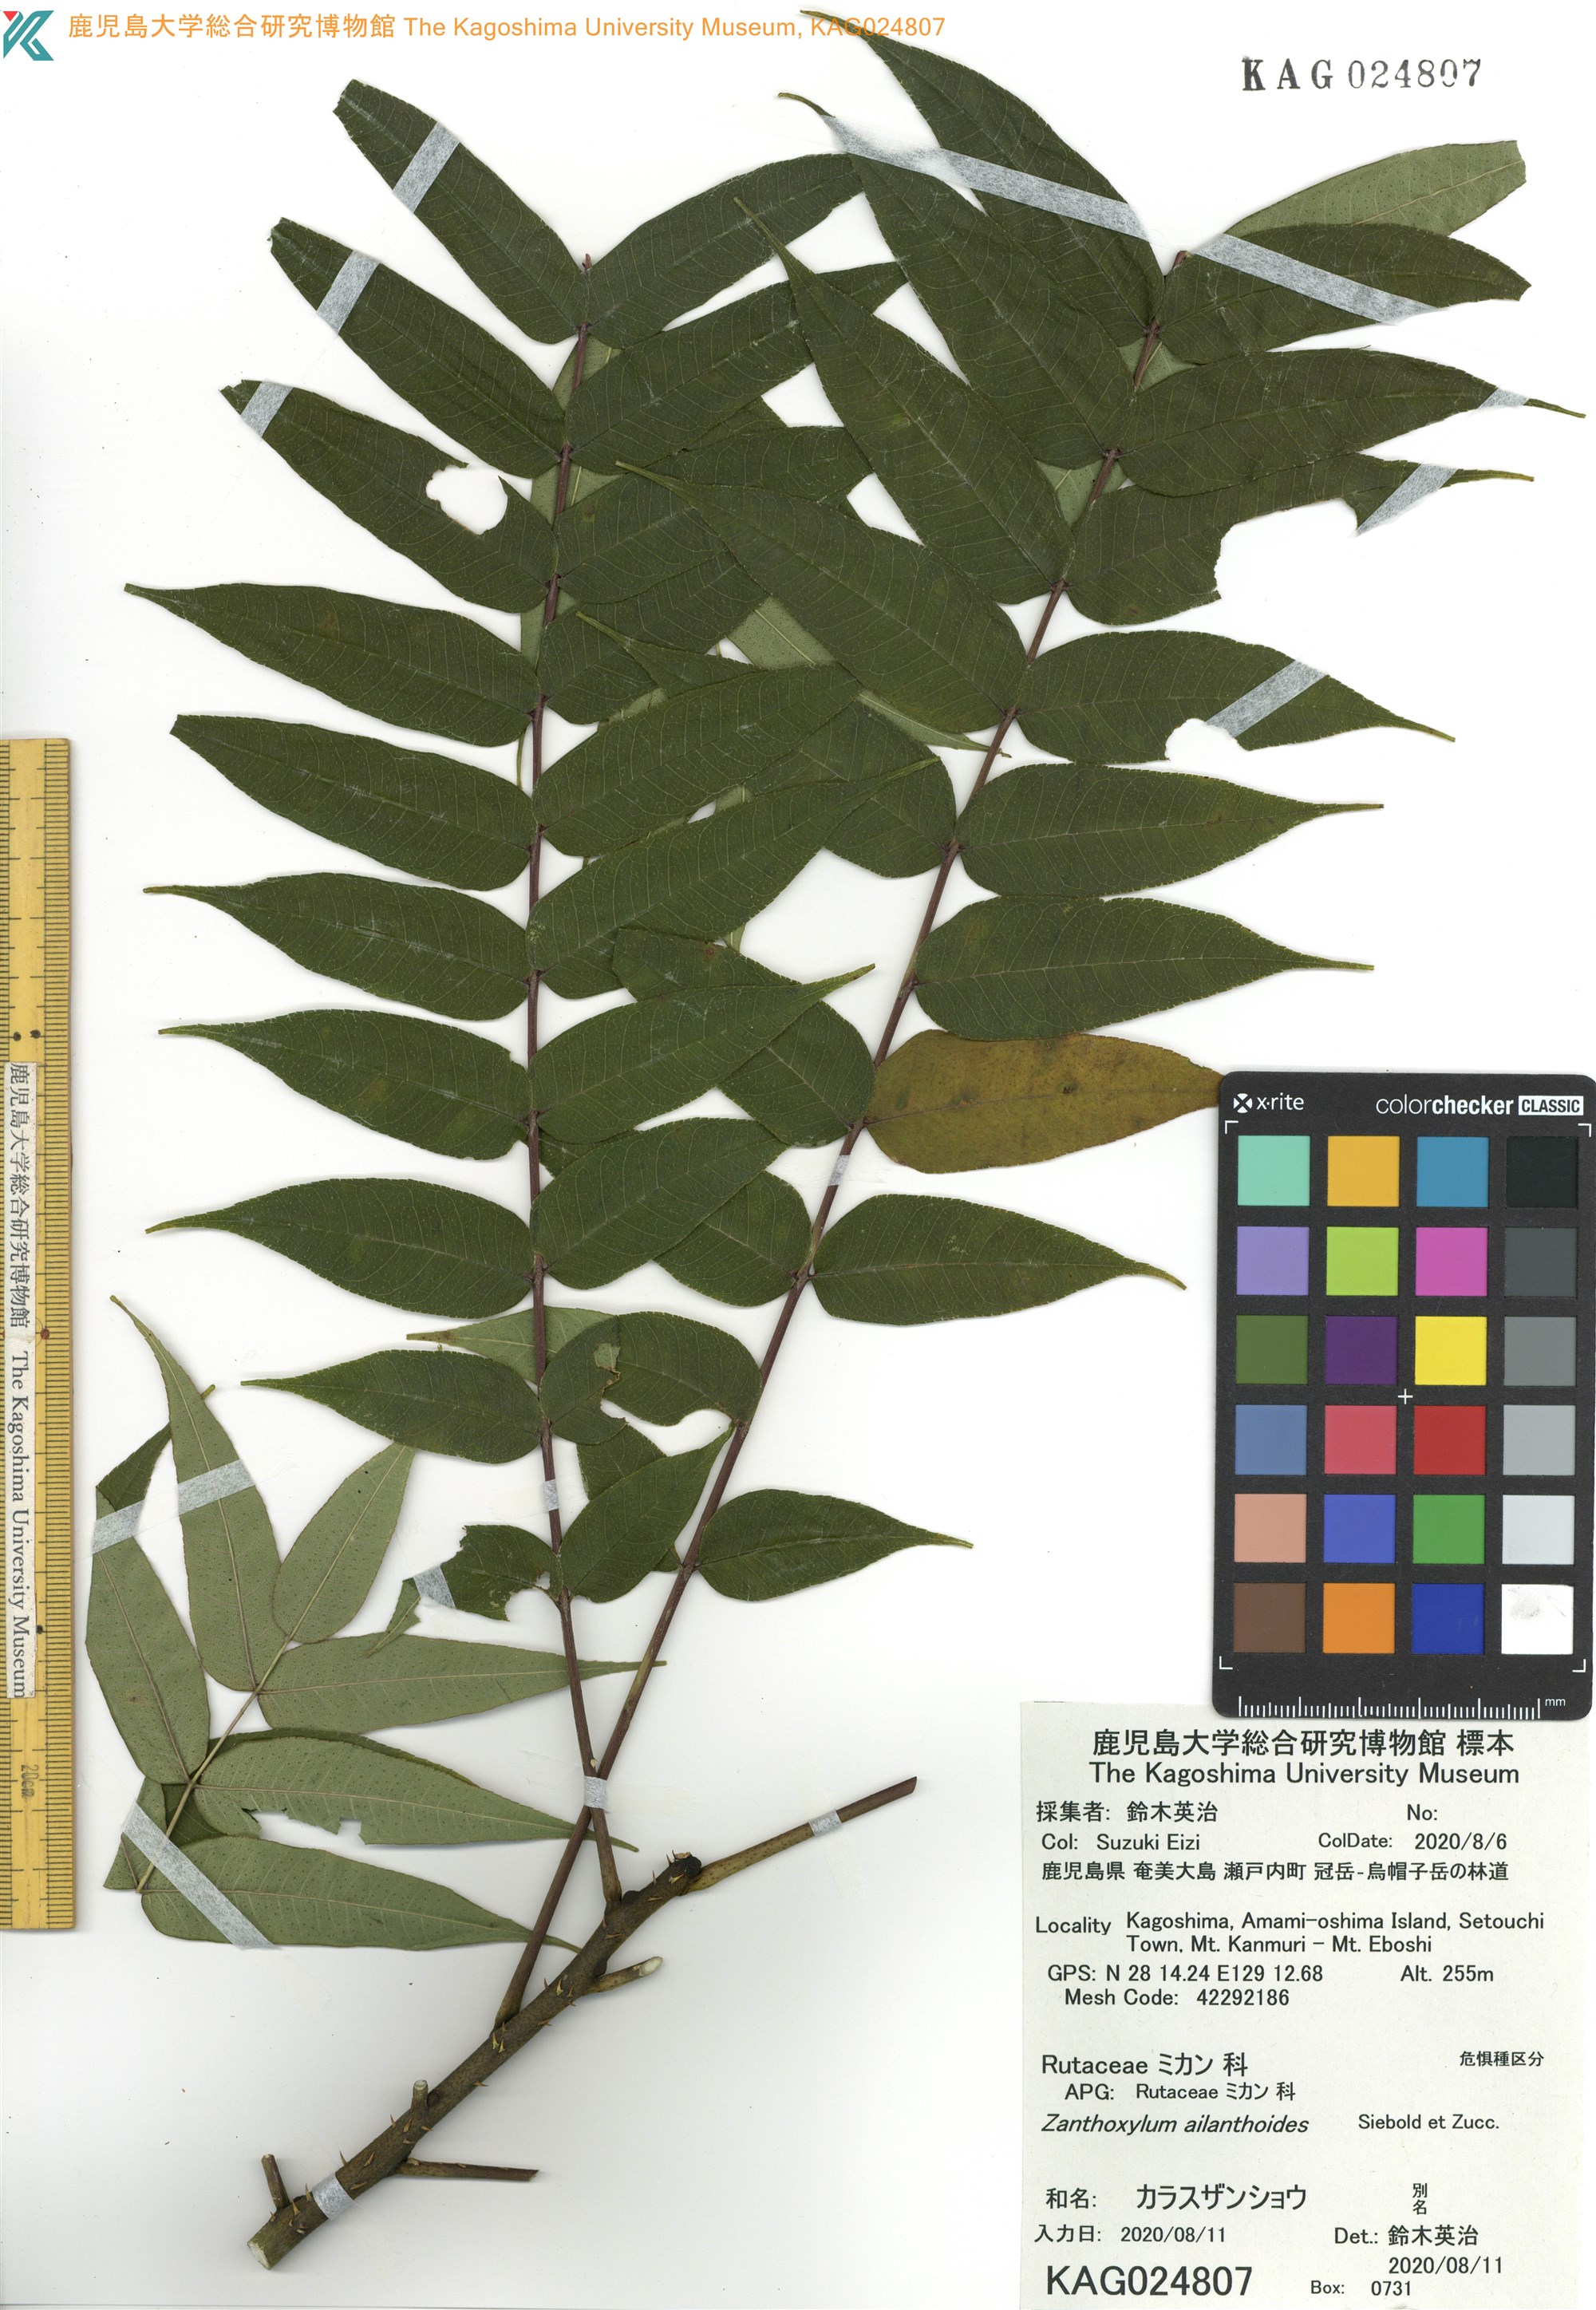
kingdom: Plantae
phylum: Tracheophyta
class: Magnoliopsida
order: Sapindales
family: Rutaceae
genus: Zanthoxylum
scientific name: Zanthoxylum ailanthoides
